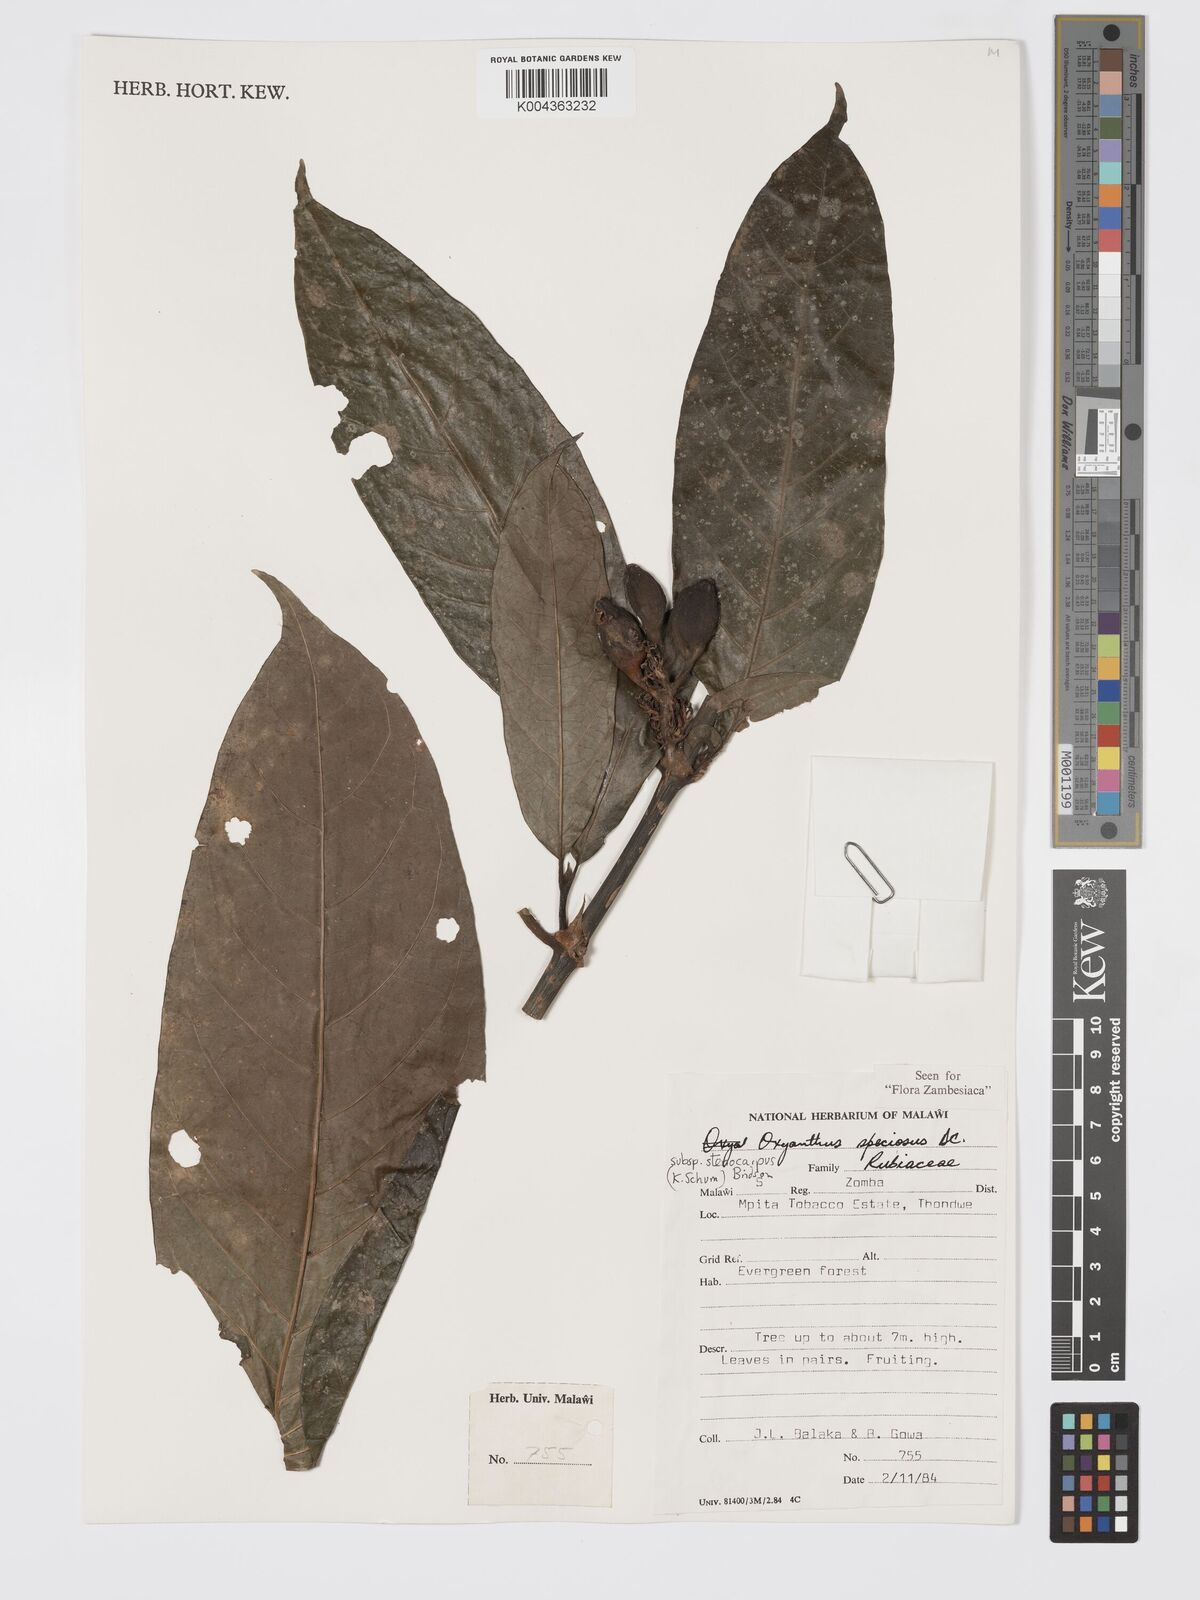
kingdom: Plantae
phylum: Tracheophyta
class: Magnoliopsida
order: Gentianales
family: Rubiaceae
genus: Oxyanthus
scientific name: Oxyanthus speciosus
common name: Whipstick loquat
